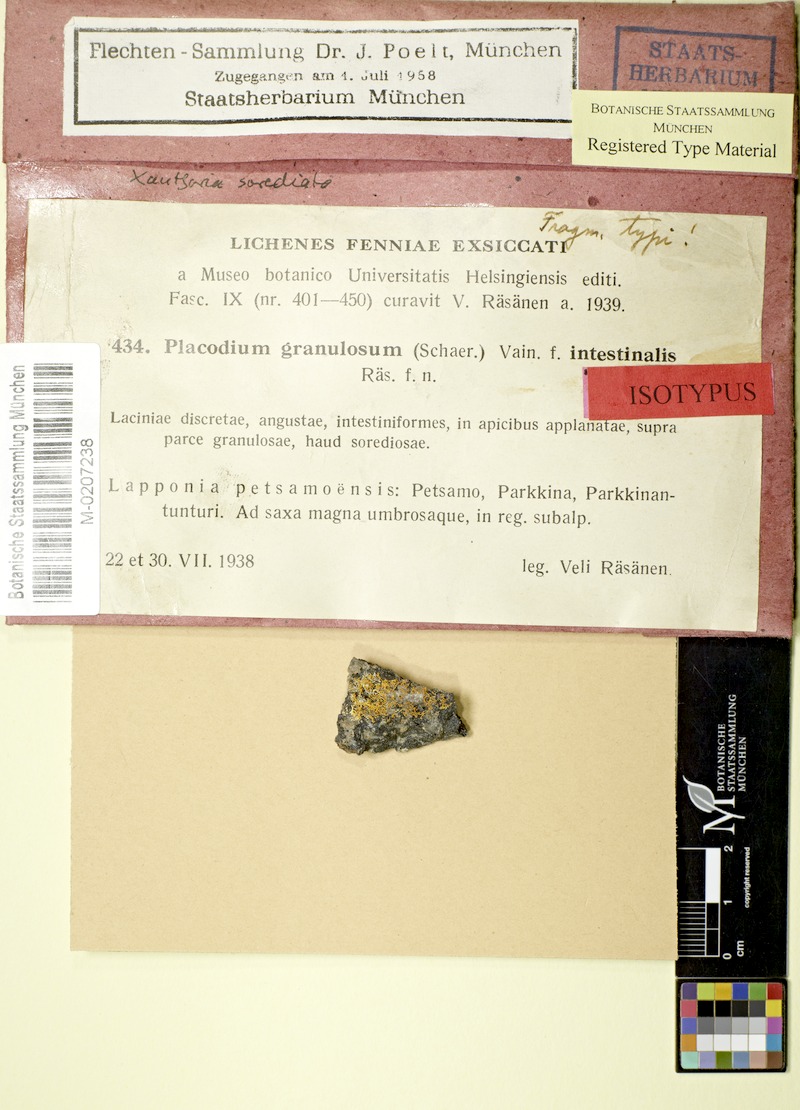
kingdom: Fungi
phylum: Ascomycota
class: Lecanoromycetes
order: Teloschistales
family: Teloschistaceae
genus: Rusavskia
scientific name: Rusavskia sorediata
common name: Sugared sunburst lichen
